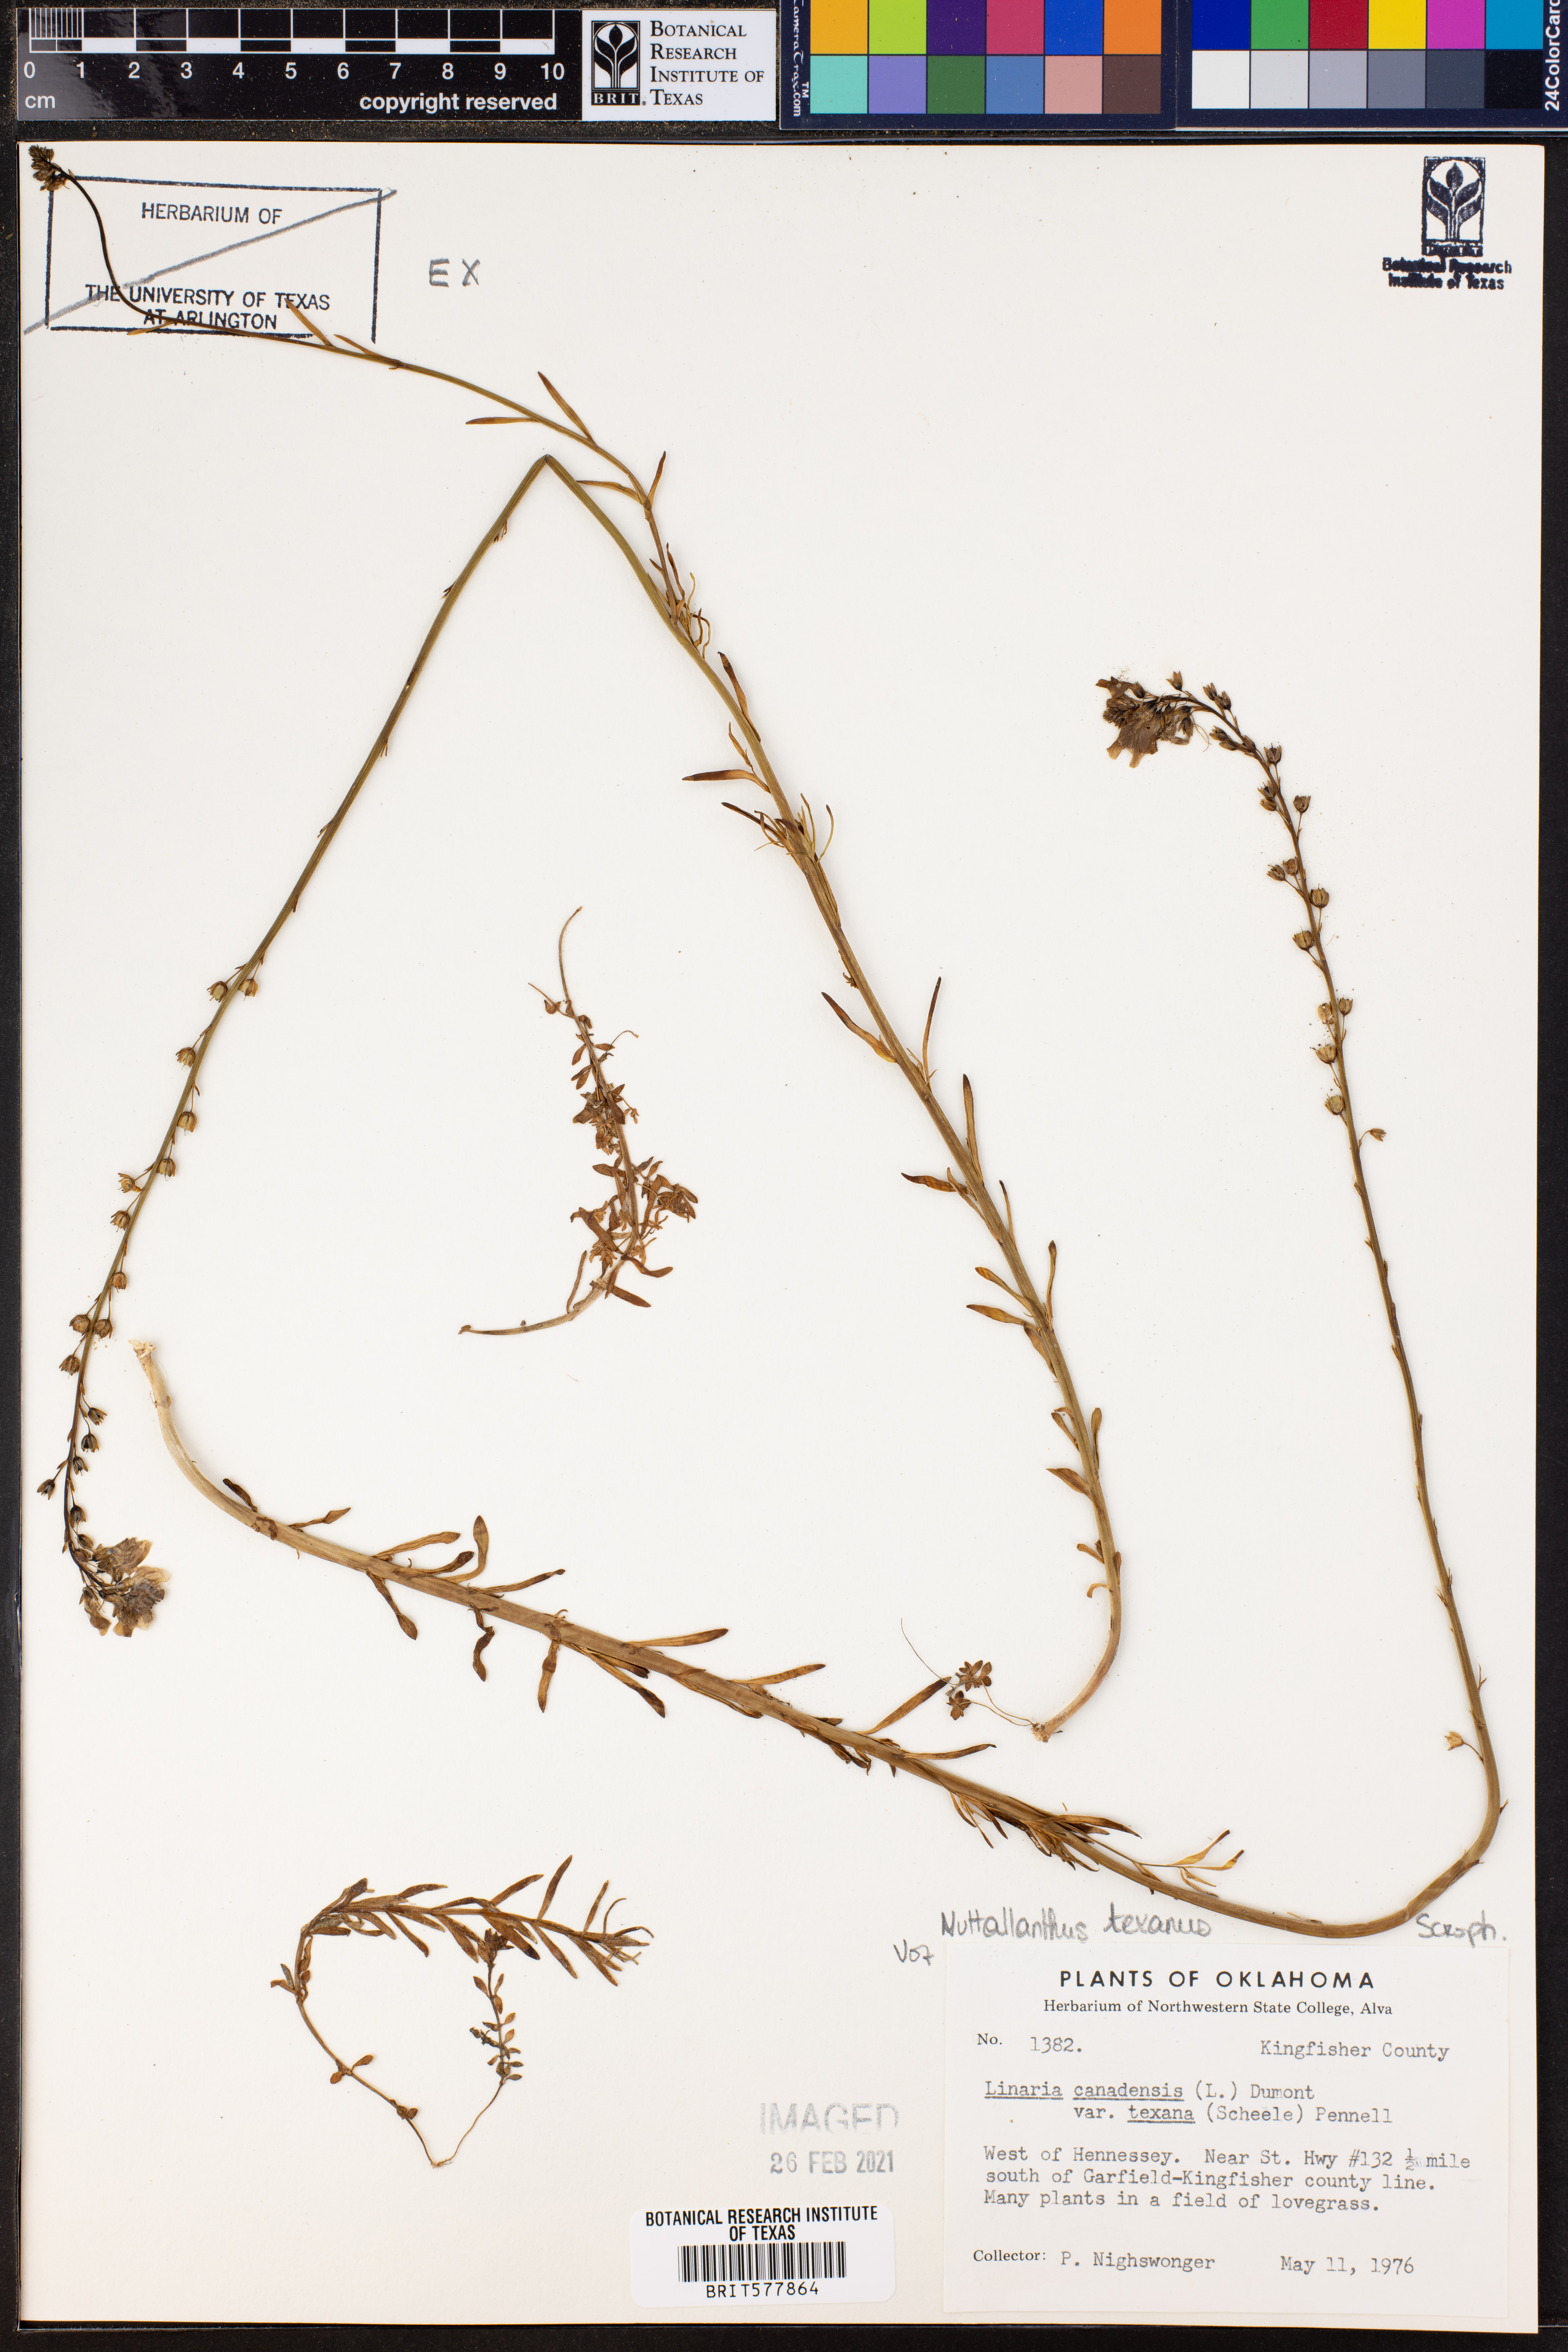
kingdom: Plantae
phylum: Tracheophyta
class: Magnoliopsida
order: Lamiales
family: Plantaginaceae
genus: Nuttallanthus
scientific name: Nuttallanthus texanus
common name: Texas toadflax
